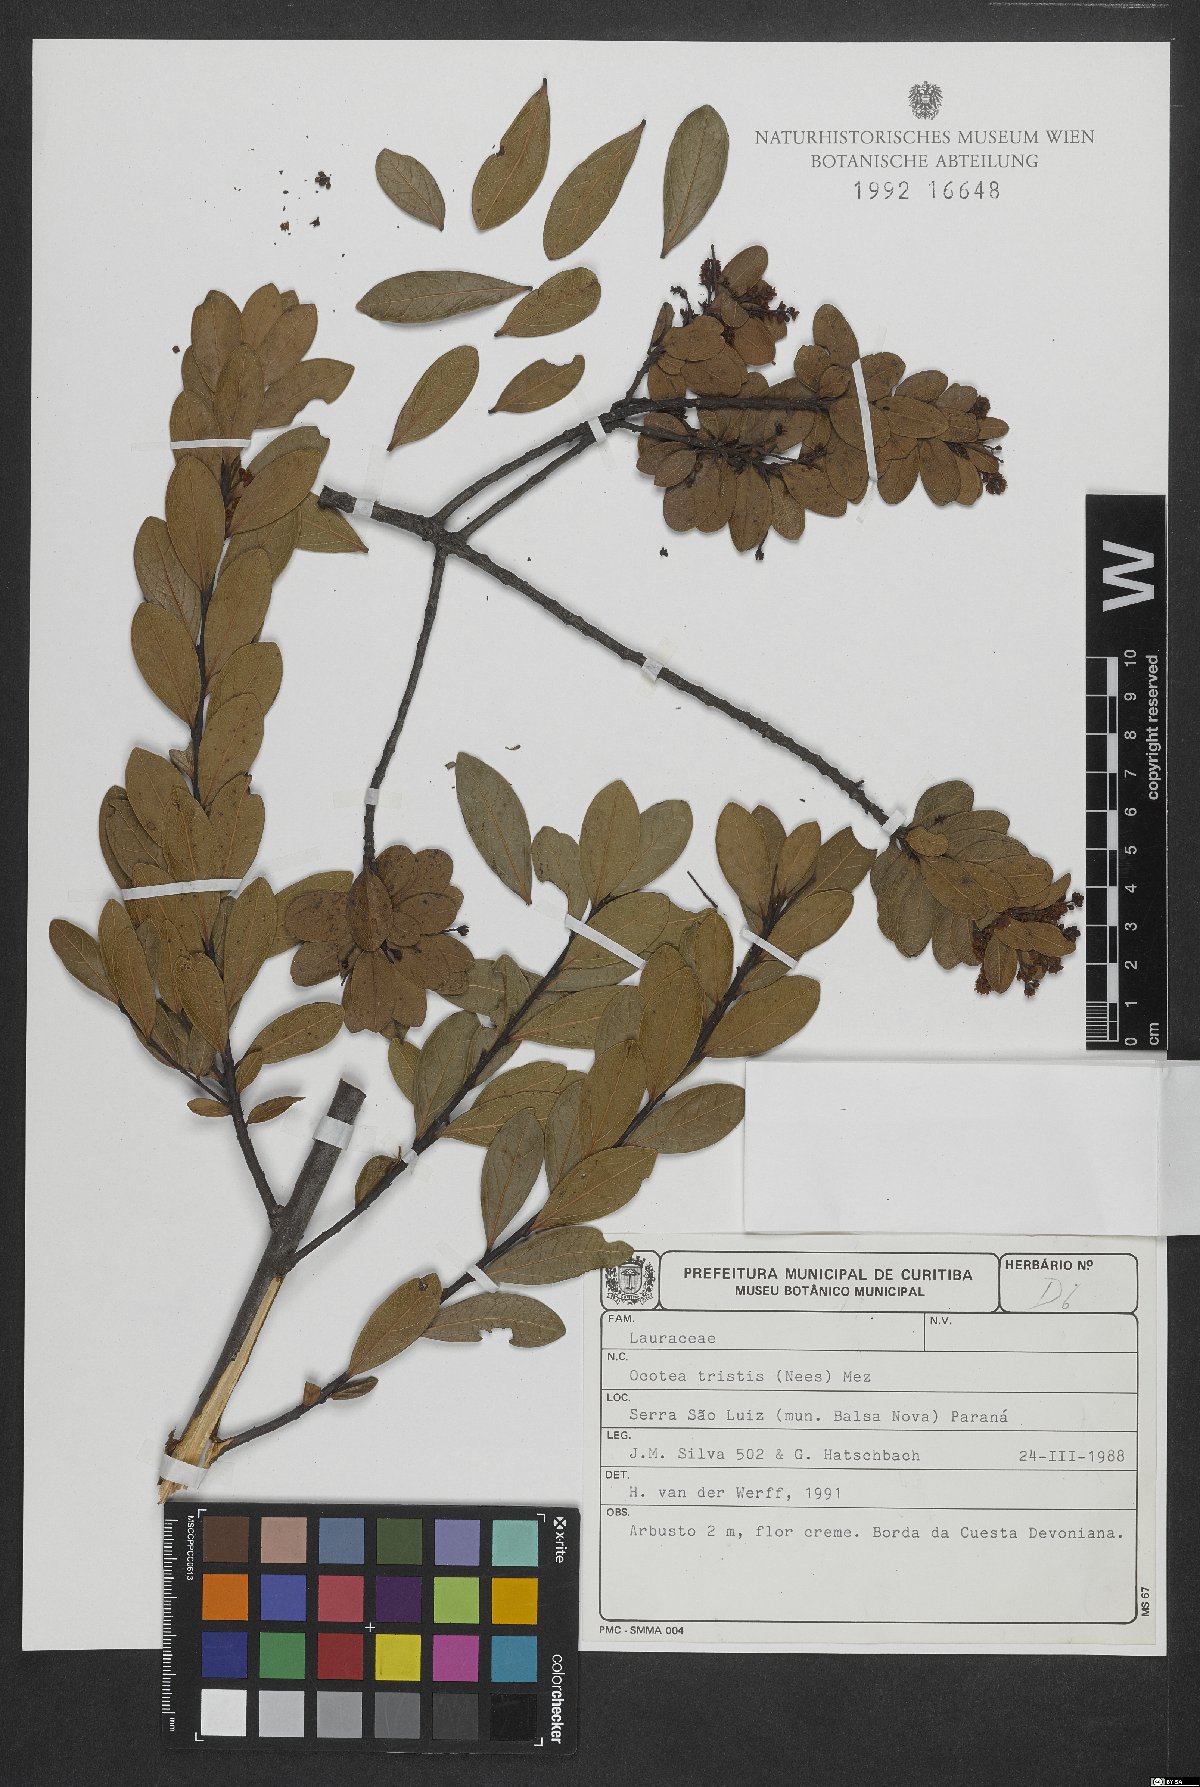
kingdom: Plantae
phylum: Tracheophyta
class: Magnoliopsida
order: Laurales
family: Lauraceae
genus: Mespilodaphne
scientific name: Mespilodaphne tristis
